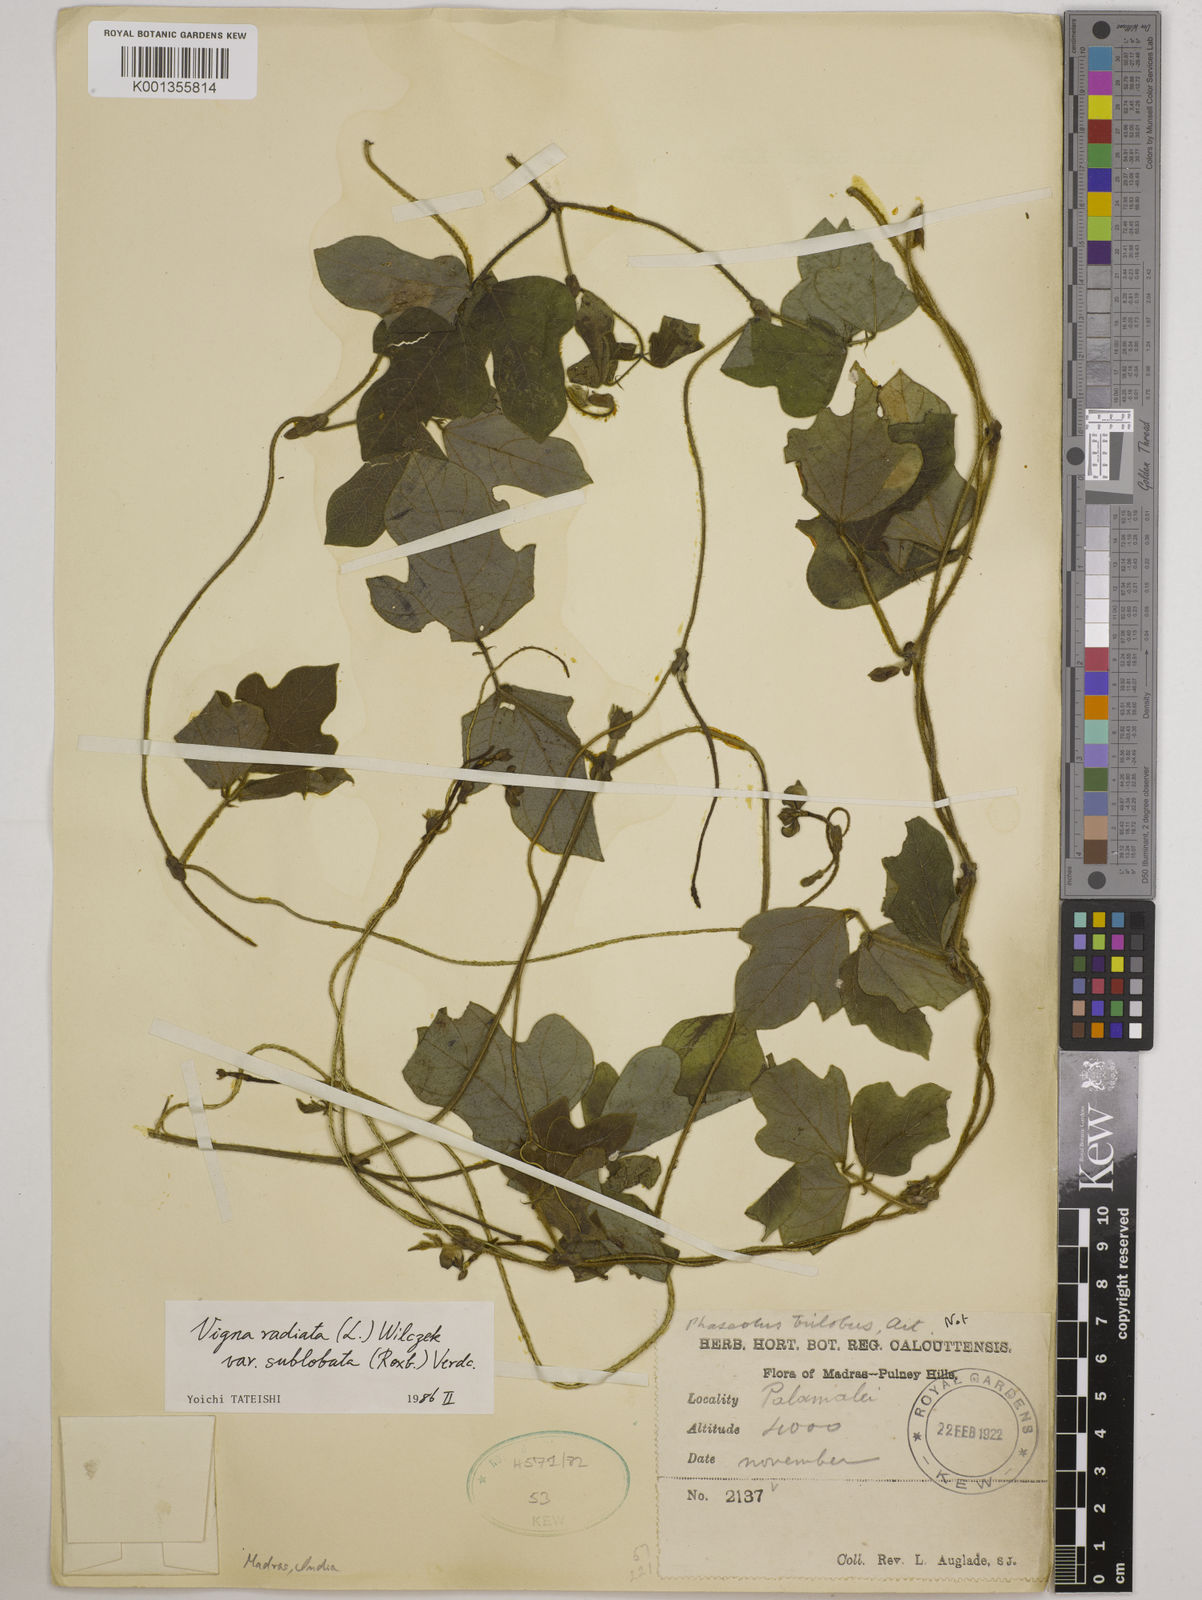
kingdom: Plantae
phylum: Tracheophyta
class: Magnoliopsida
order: Fabales
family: Fabaceae
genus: Vigna
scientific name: Vigna radiata
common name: Mung-bean
